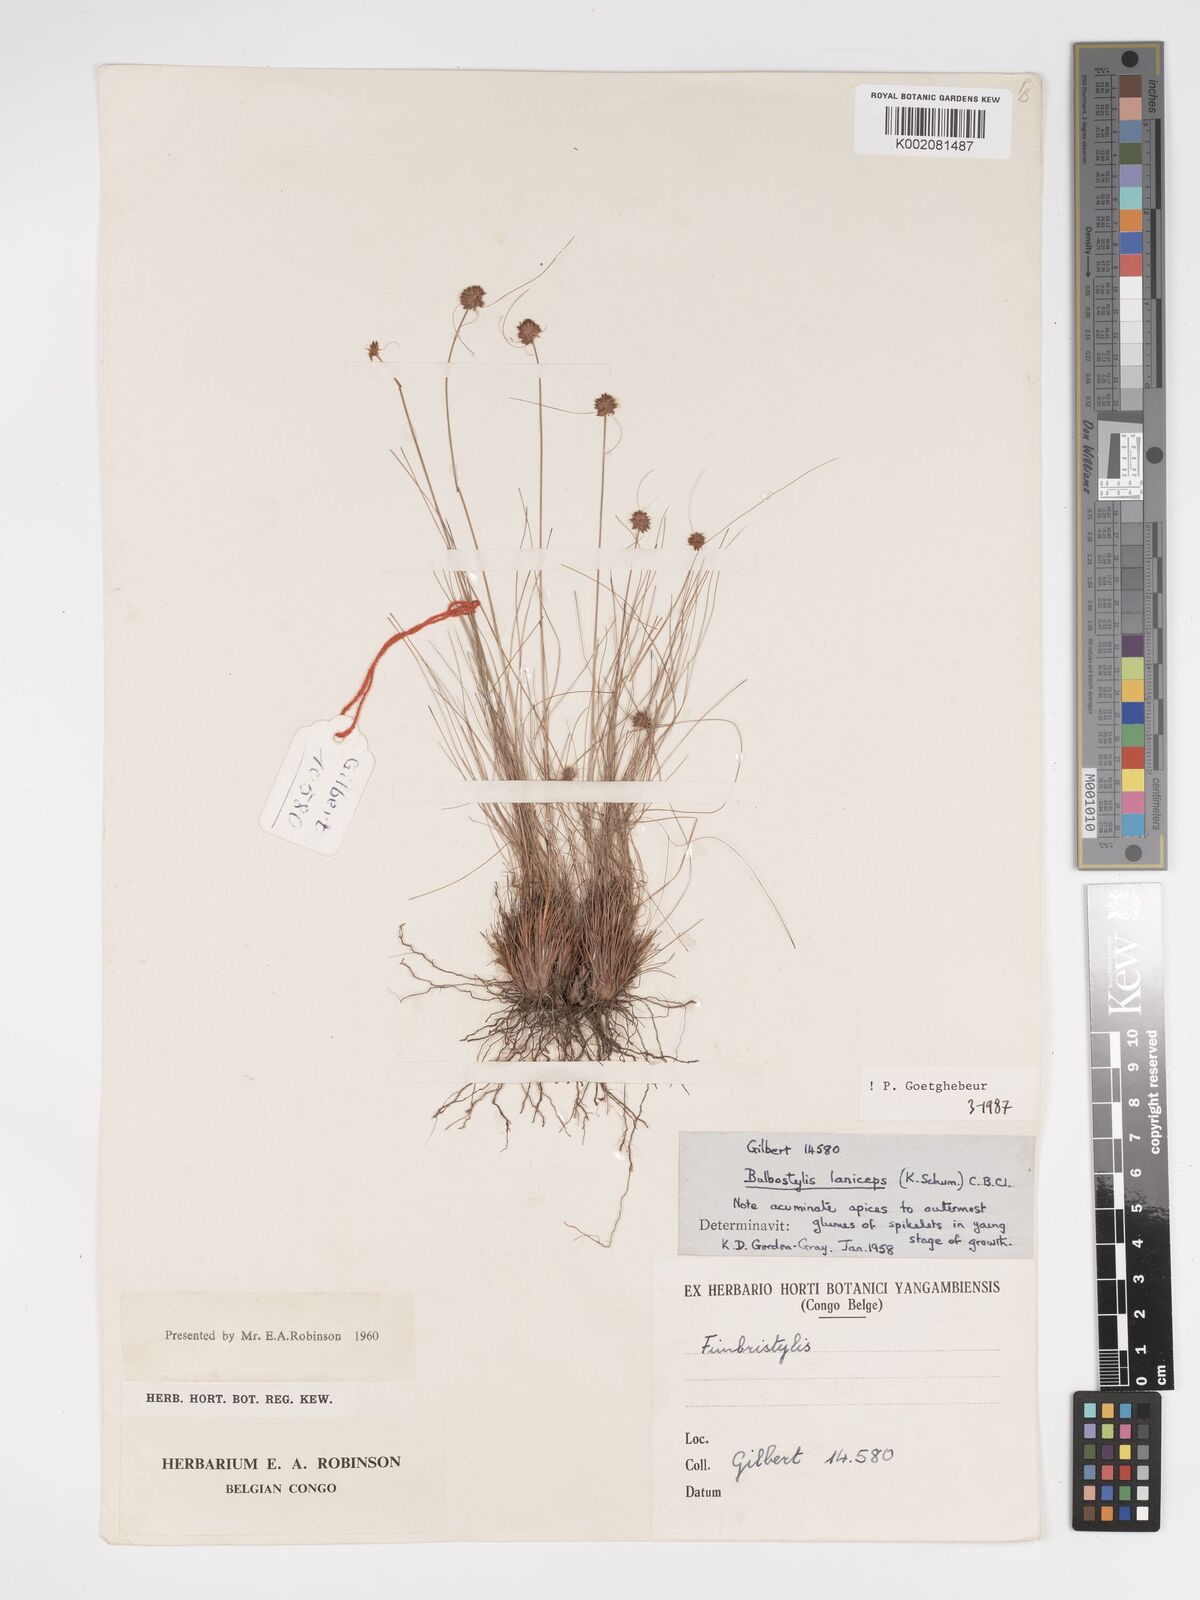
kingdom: Plantae
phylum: Tracheophyta
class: Liliopsida
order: Poales
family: Cyperaceae
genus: Bulbostylis
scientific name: Bulbostylis laniceps
